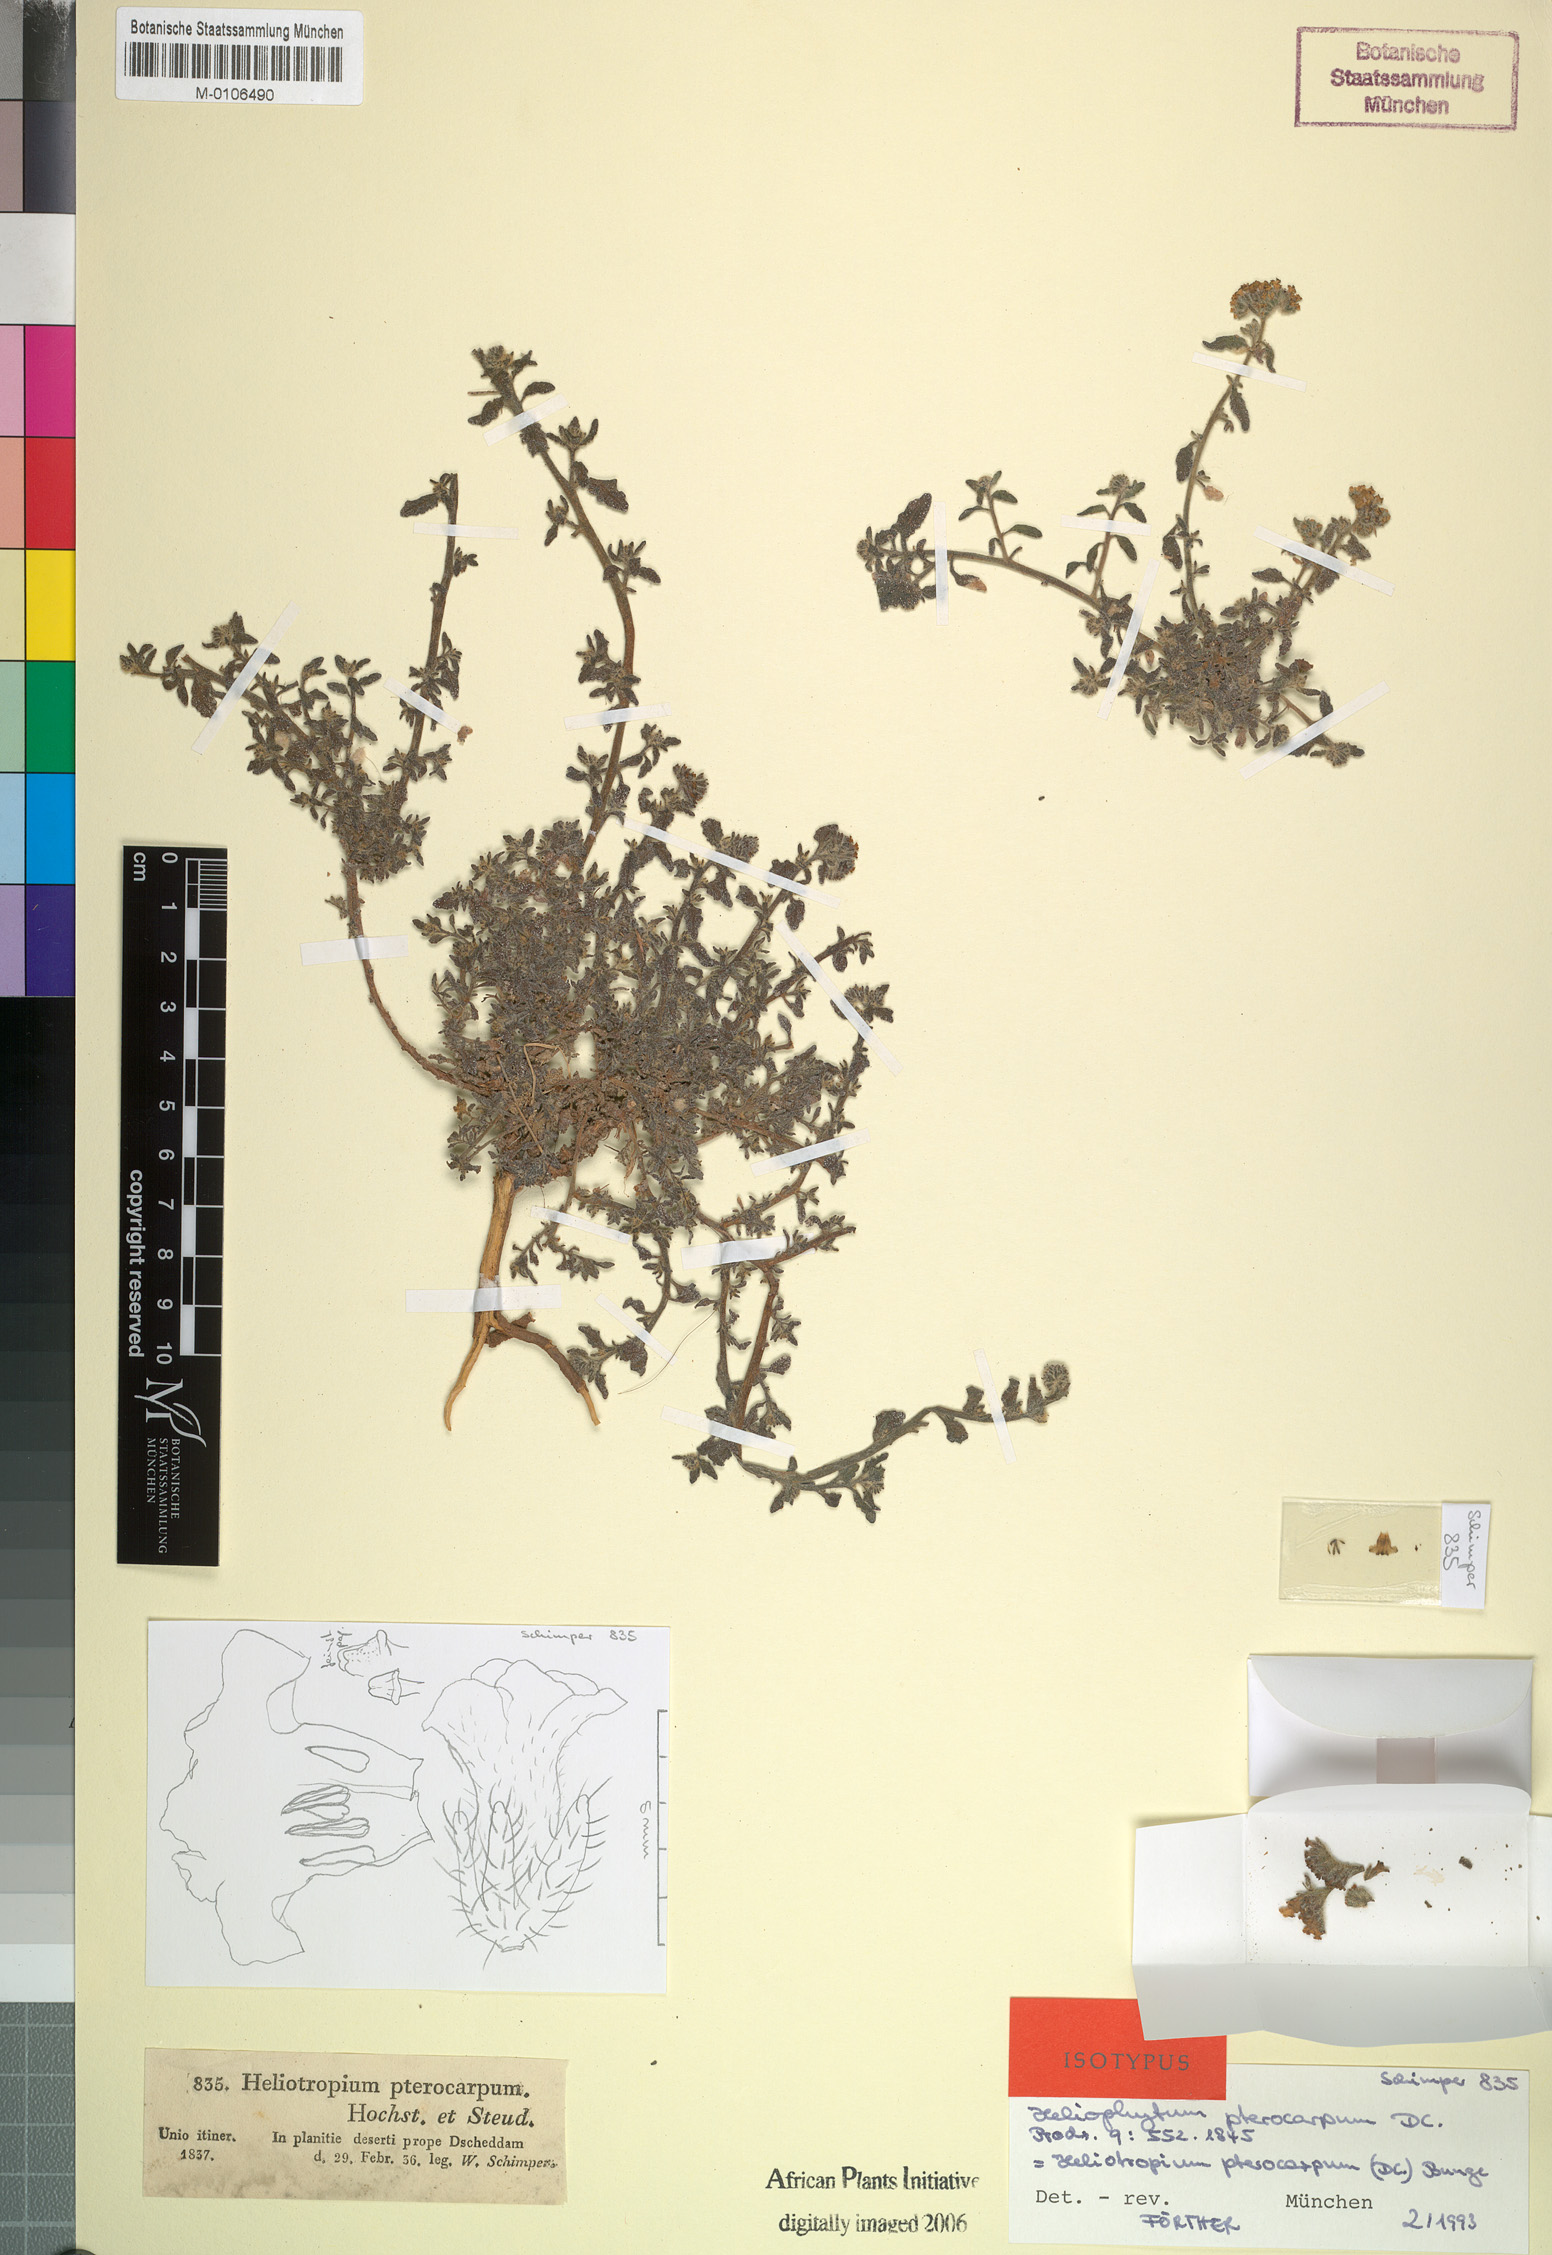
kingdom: Plantae
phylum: Tracheophyta
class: Magnoliopsida
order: Boraginales
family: Heliotropiaceae
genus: Heliotropium
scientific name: Heliotropium bacciferum
